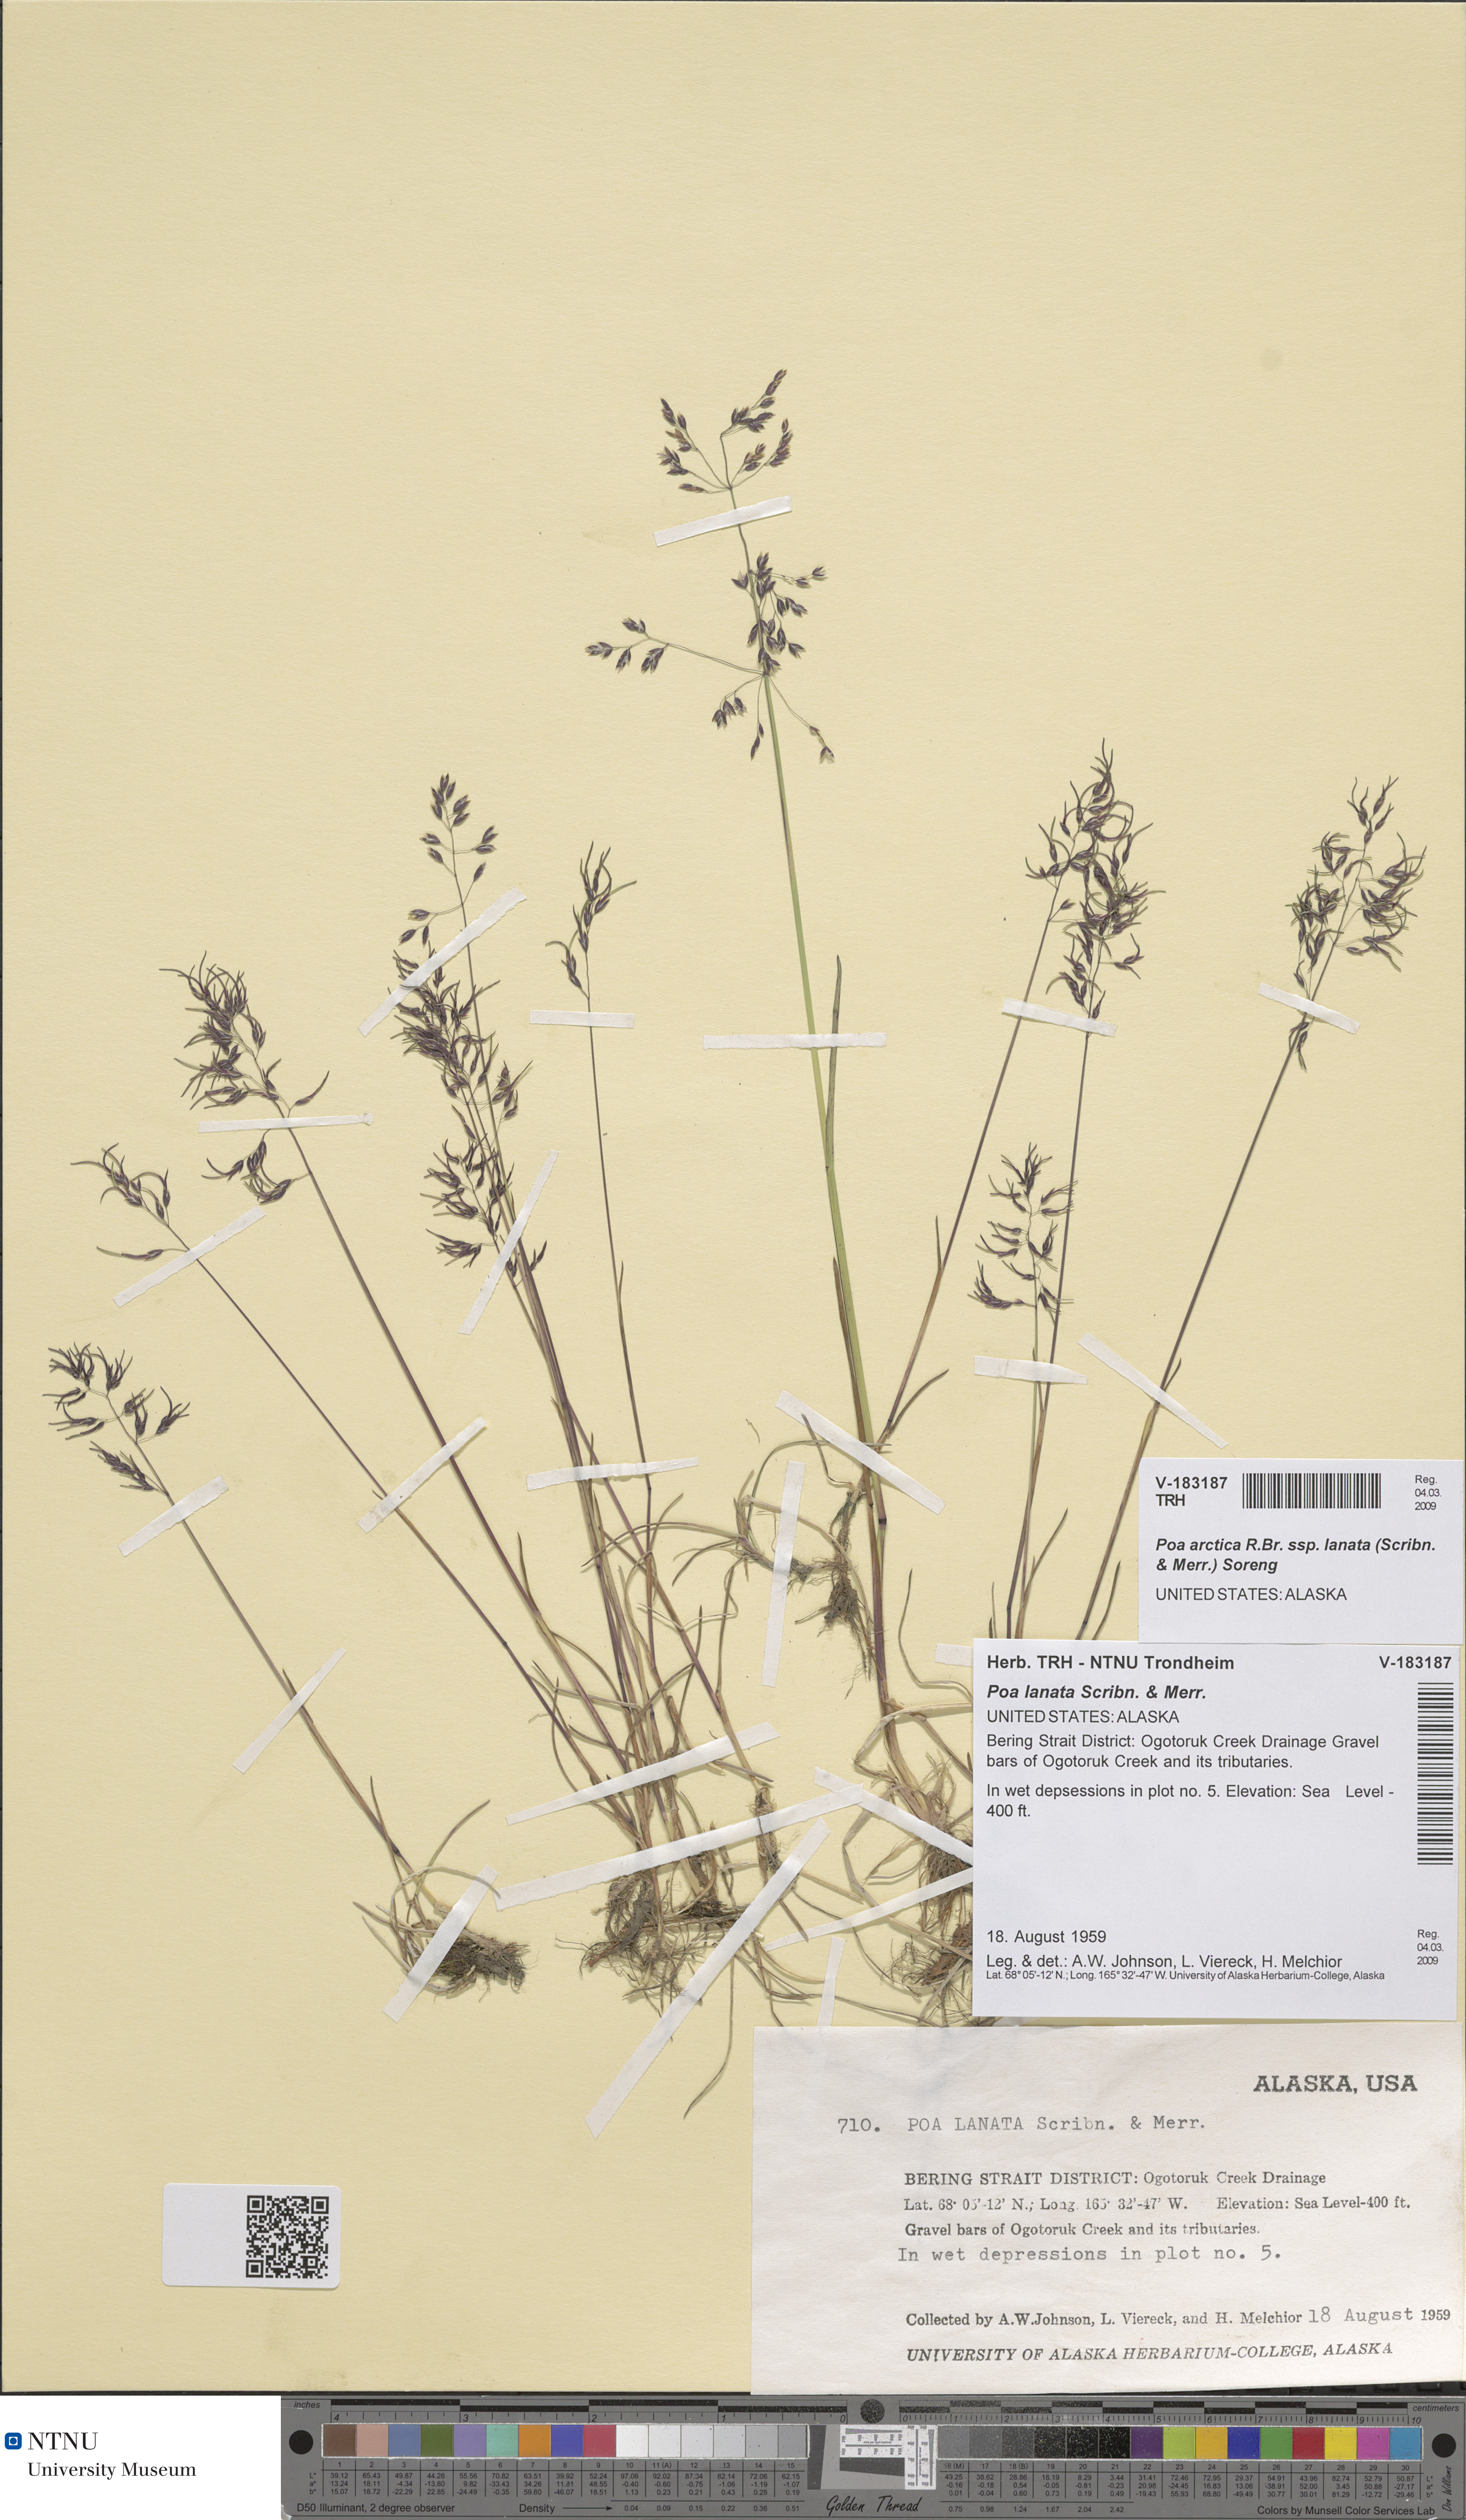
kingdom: Plantae
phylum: Tracheophyta
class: Liliopsida
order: Poales
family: Poaceae
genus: Poa
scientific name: Poa lanata
